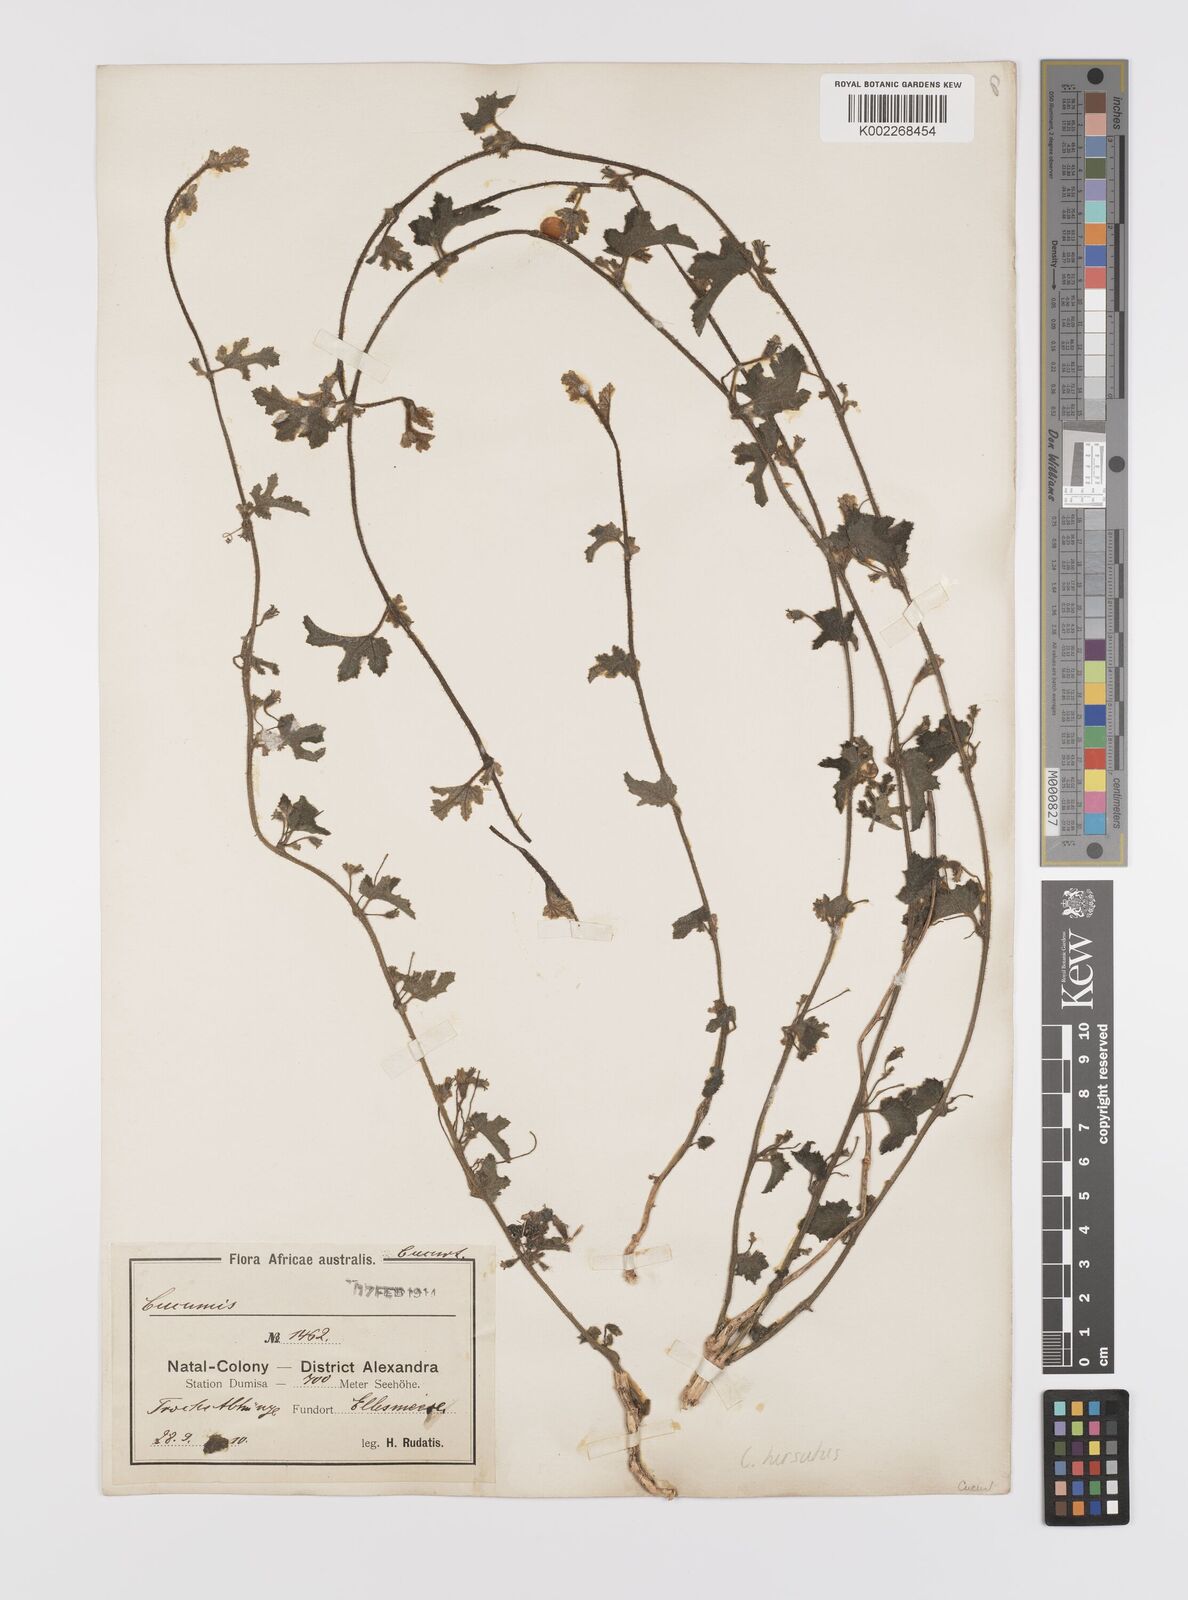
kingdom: Plantae
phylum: Tracheophyta
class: Magnoliopsida
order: Cucurbitales
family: Cucurbitaceae
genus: Cucumis
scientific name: Cucumis hirsutus
